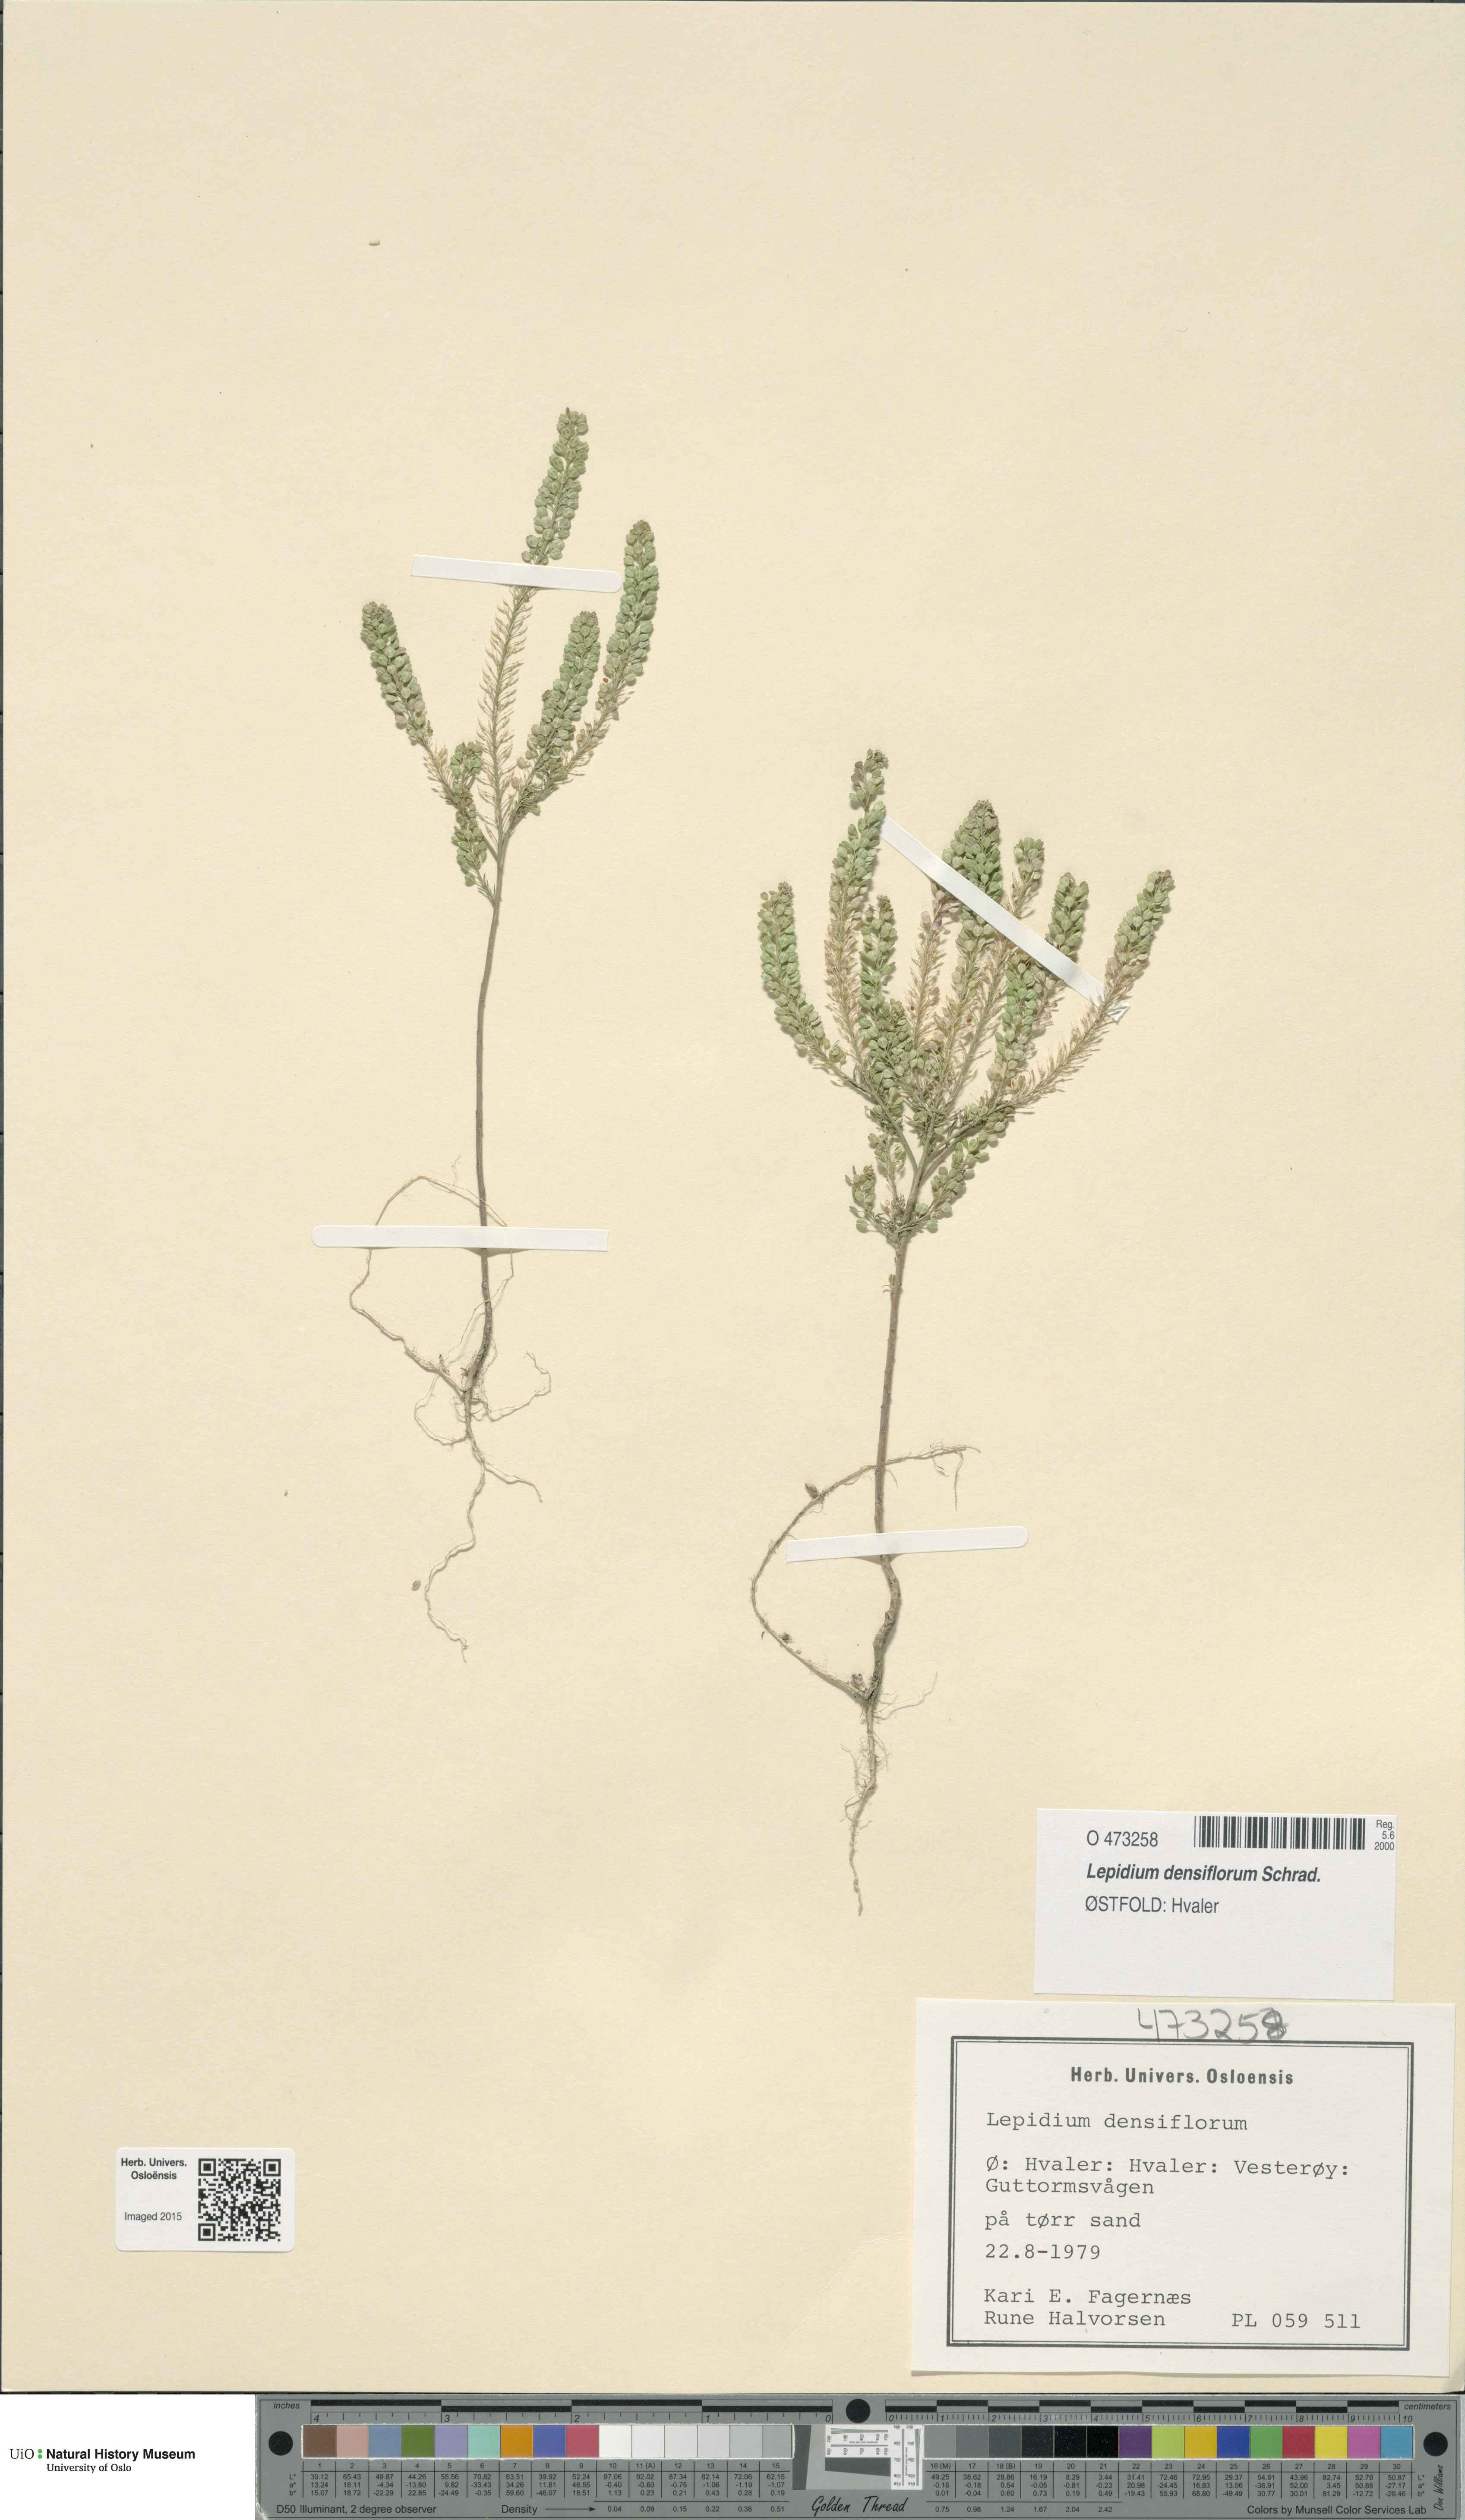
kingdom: Plantae
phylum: Tracheophyta
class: Magnoliopsida
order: Brassicales
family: Brassicaceae
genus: Lepidium
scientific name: Lepidium densiflorum
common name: Miner's pepperwort
